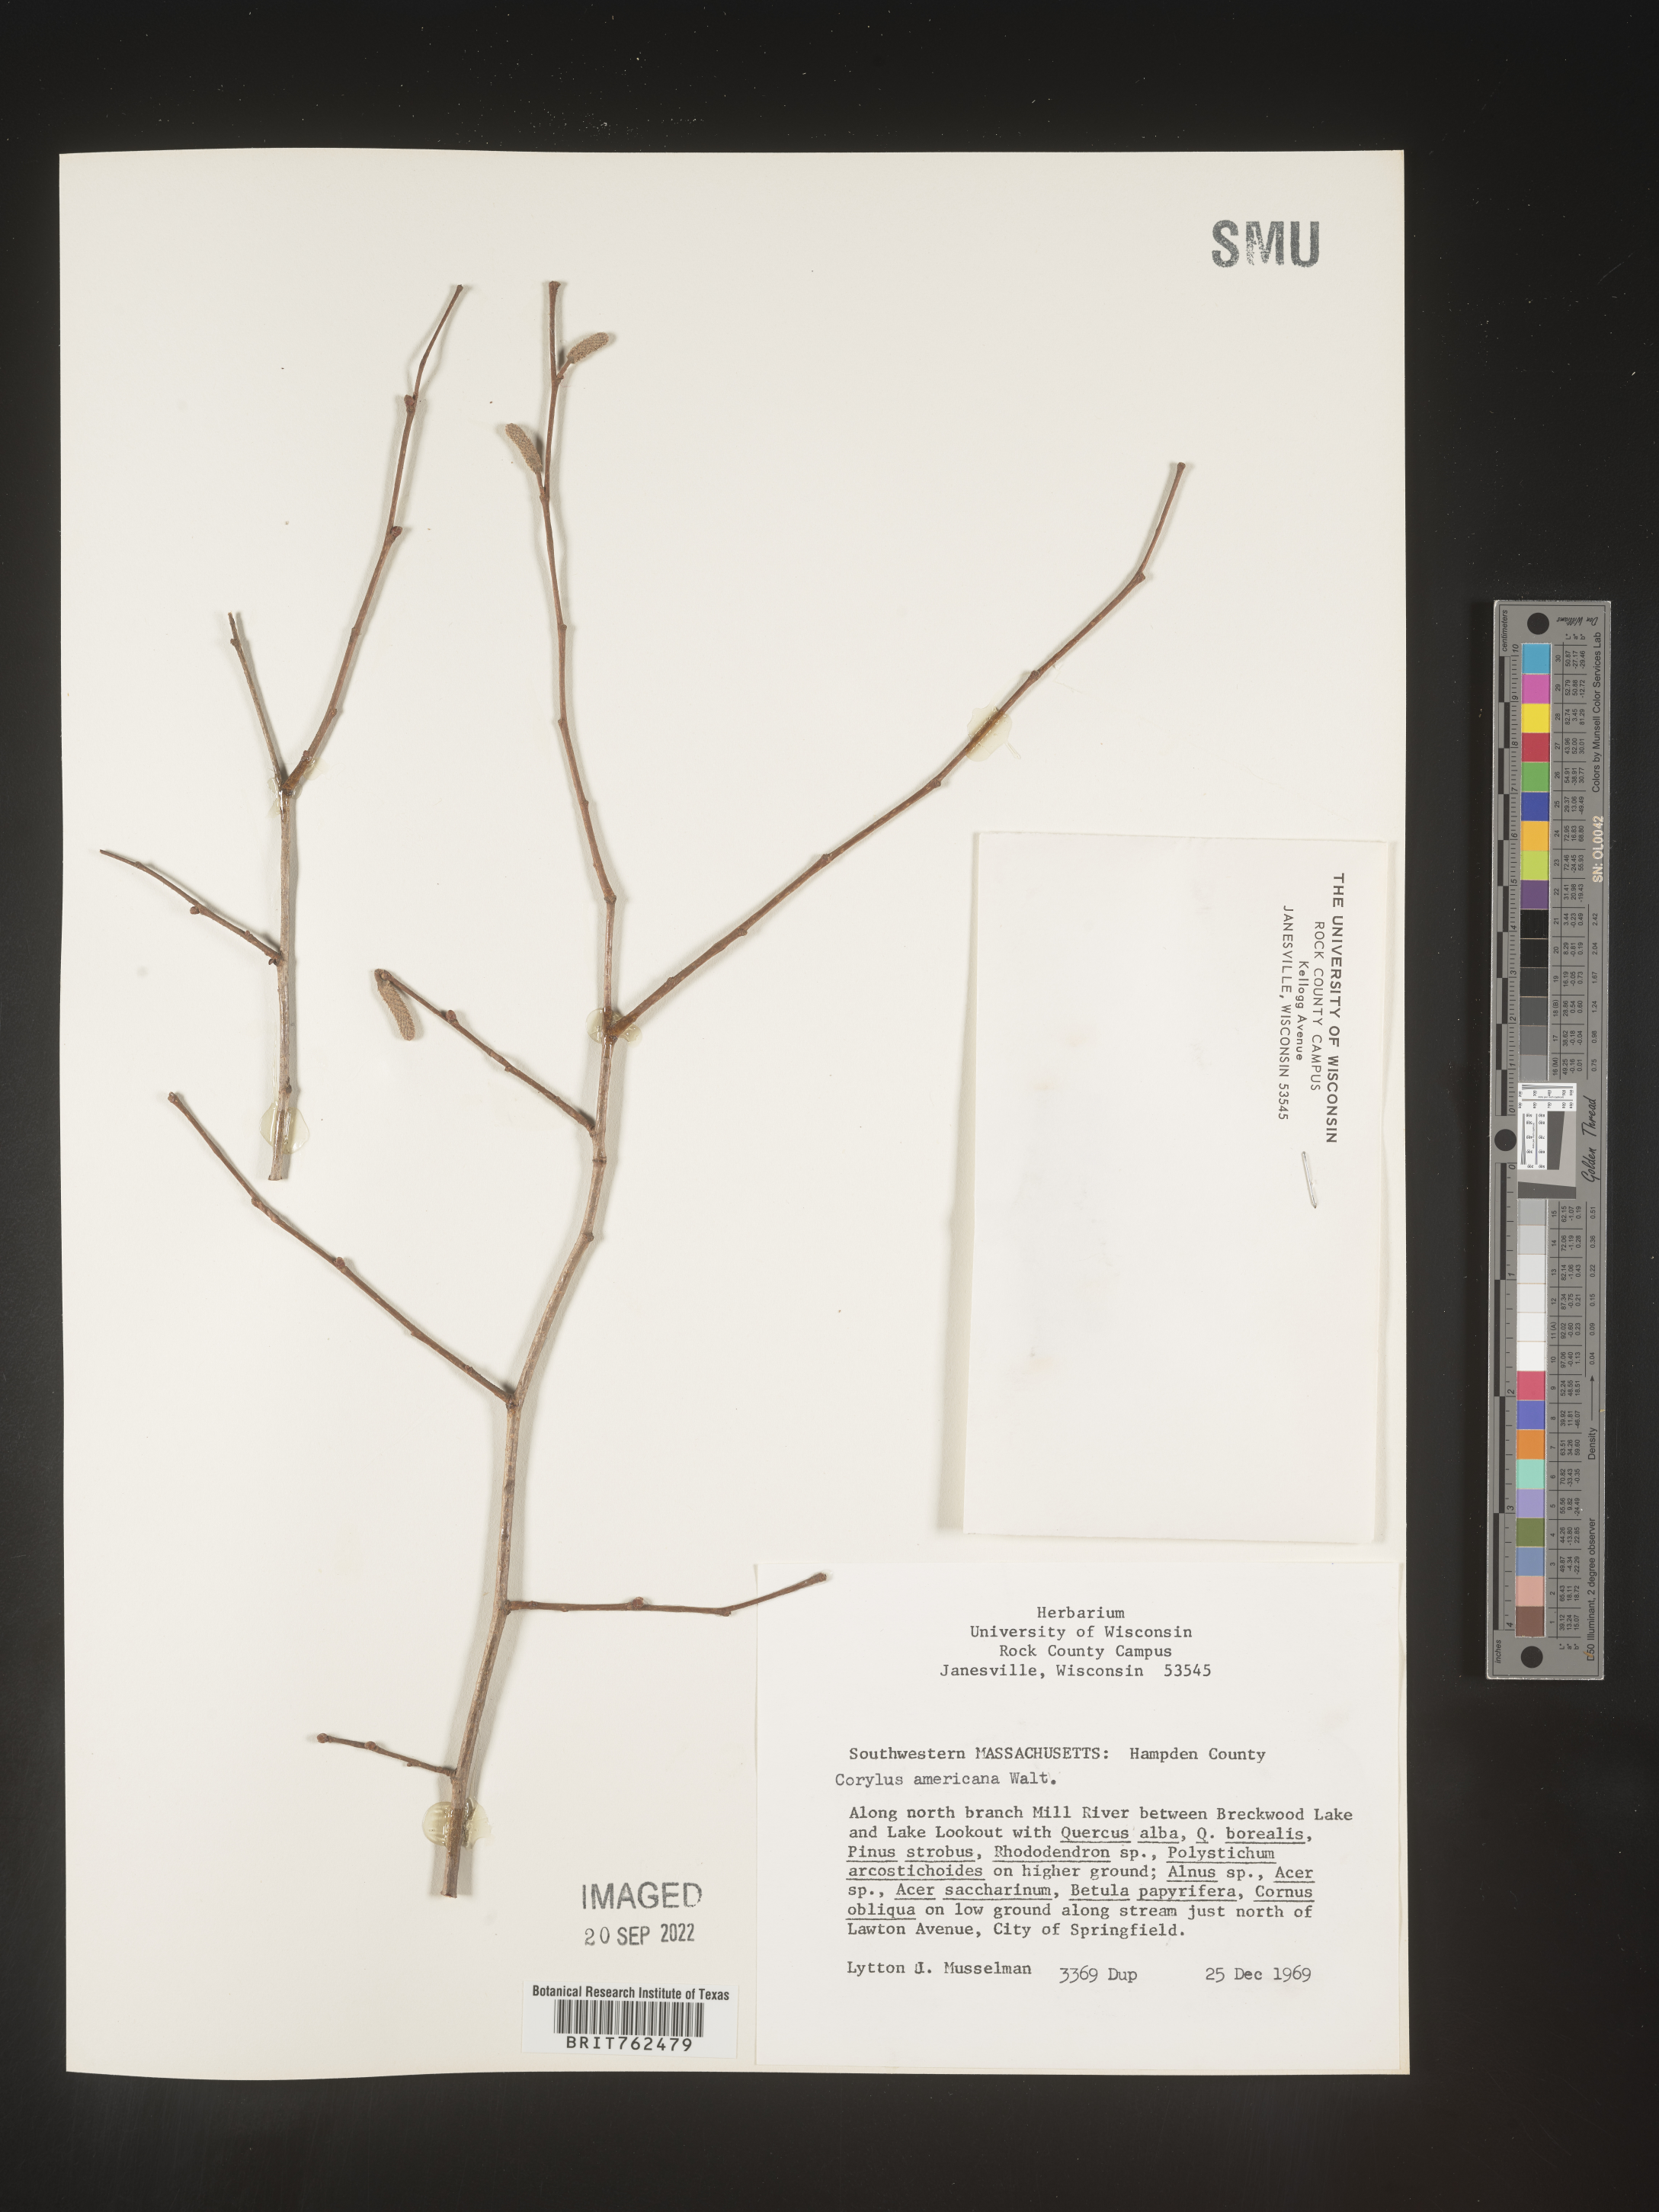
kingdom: Plantae
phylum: Tracheophyta
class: Magnoliopsida
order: Fagales
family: Betulaceae
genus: Corylus
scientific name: Corylus americana
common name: American hazel
